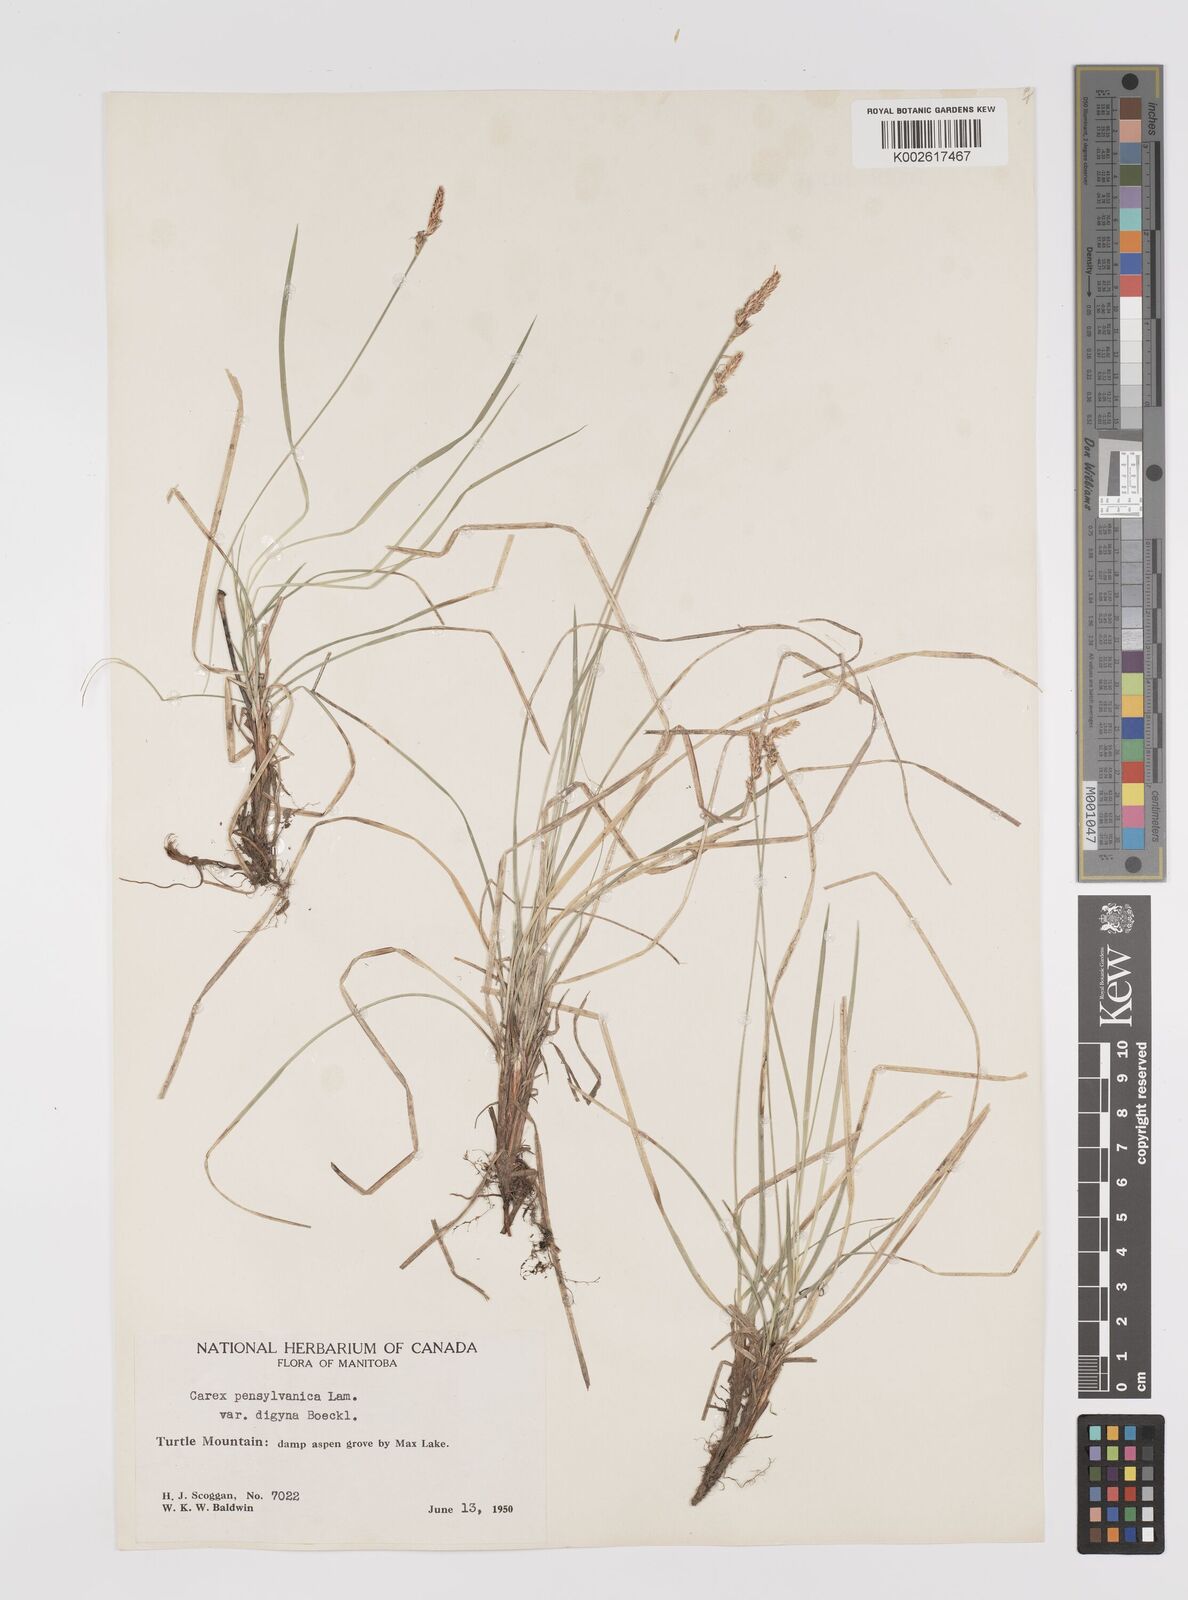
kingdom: Plantae
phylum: Tracheophyta
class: Liliopsida
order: Poales
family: Cyperaceae
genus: Carex
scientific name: Carex pensylvanica
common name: Common oak sedge
